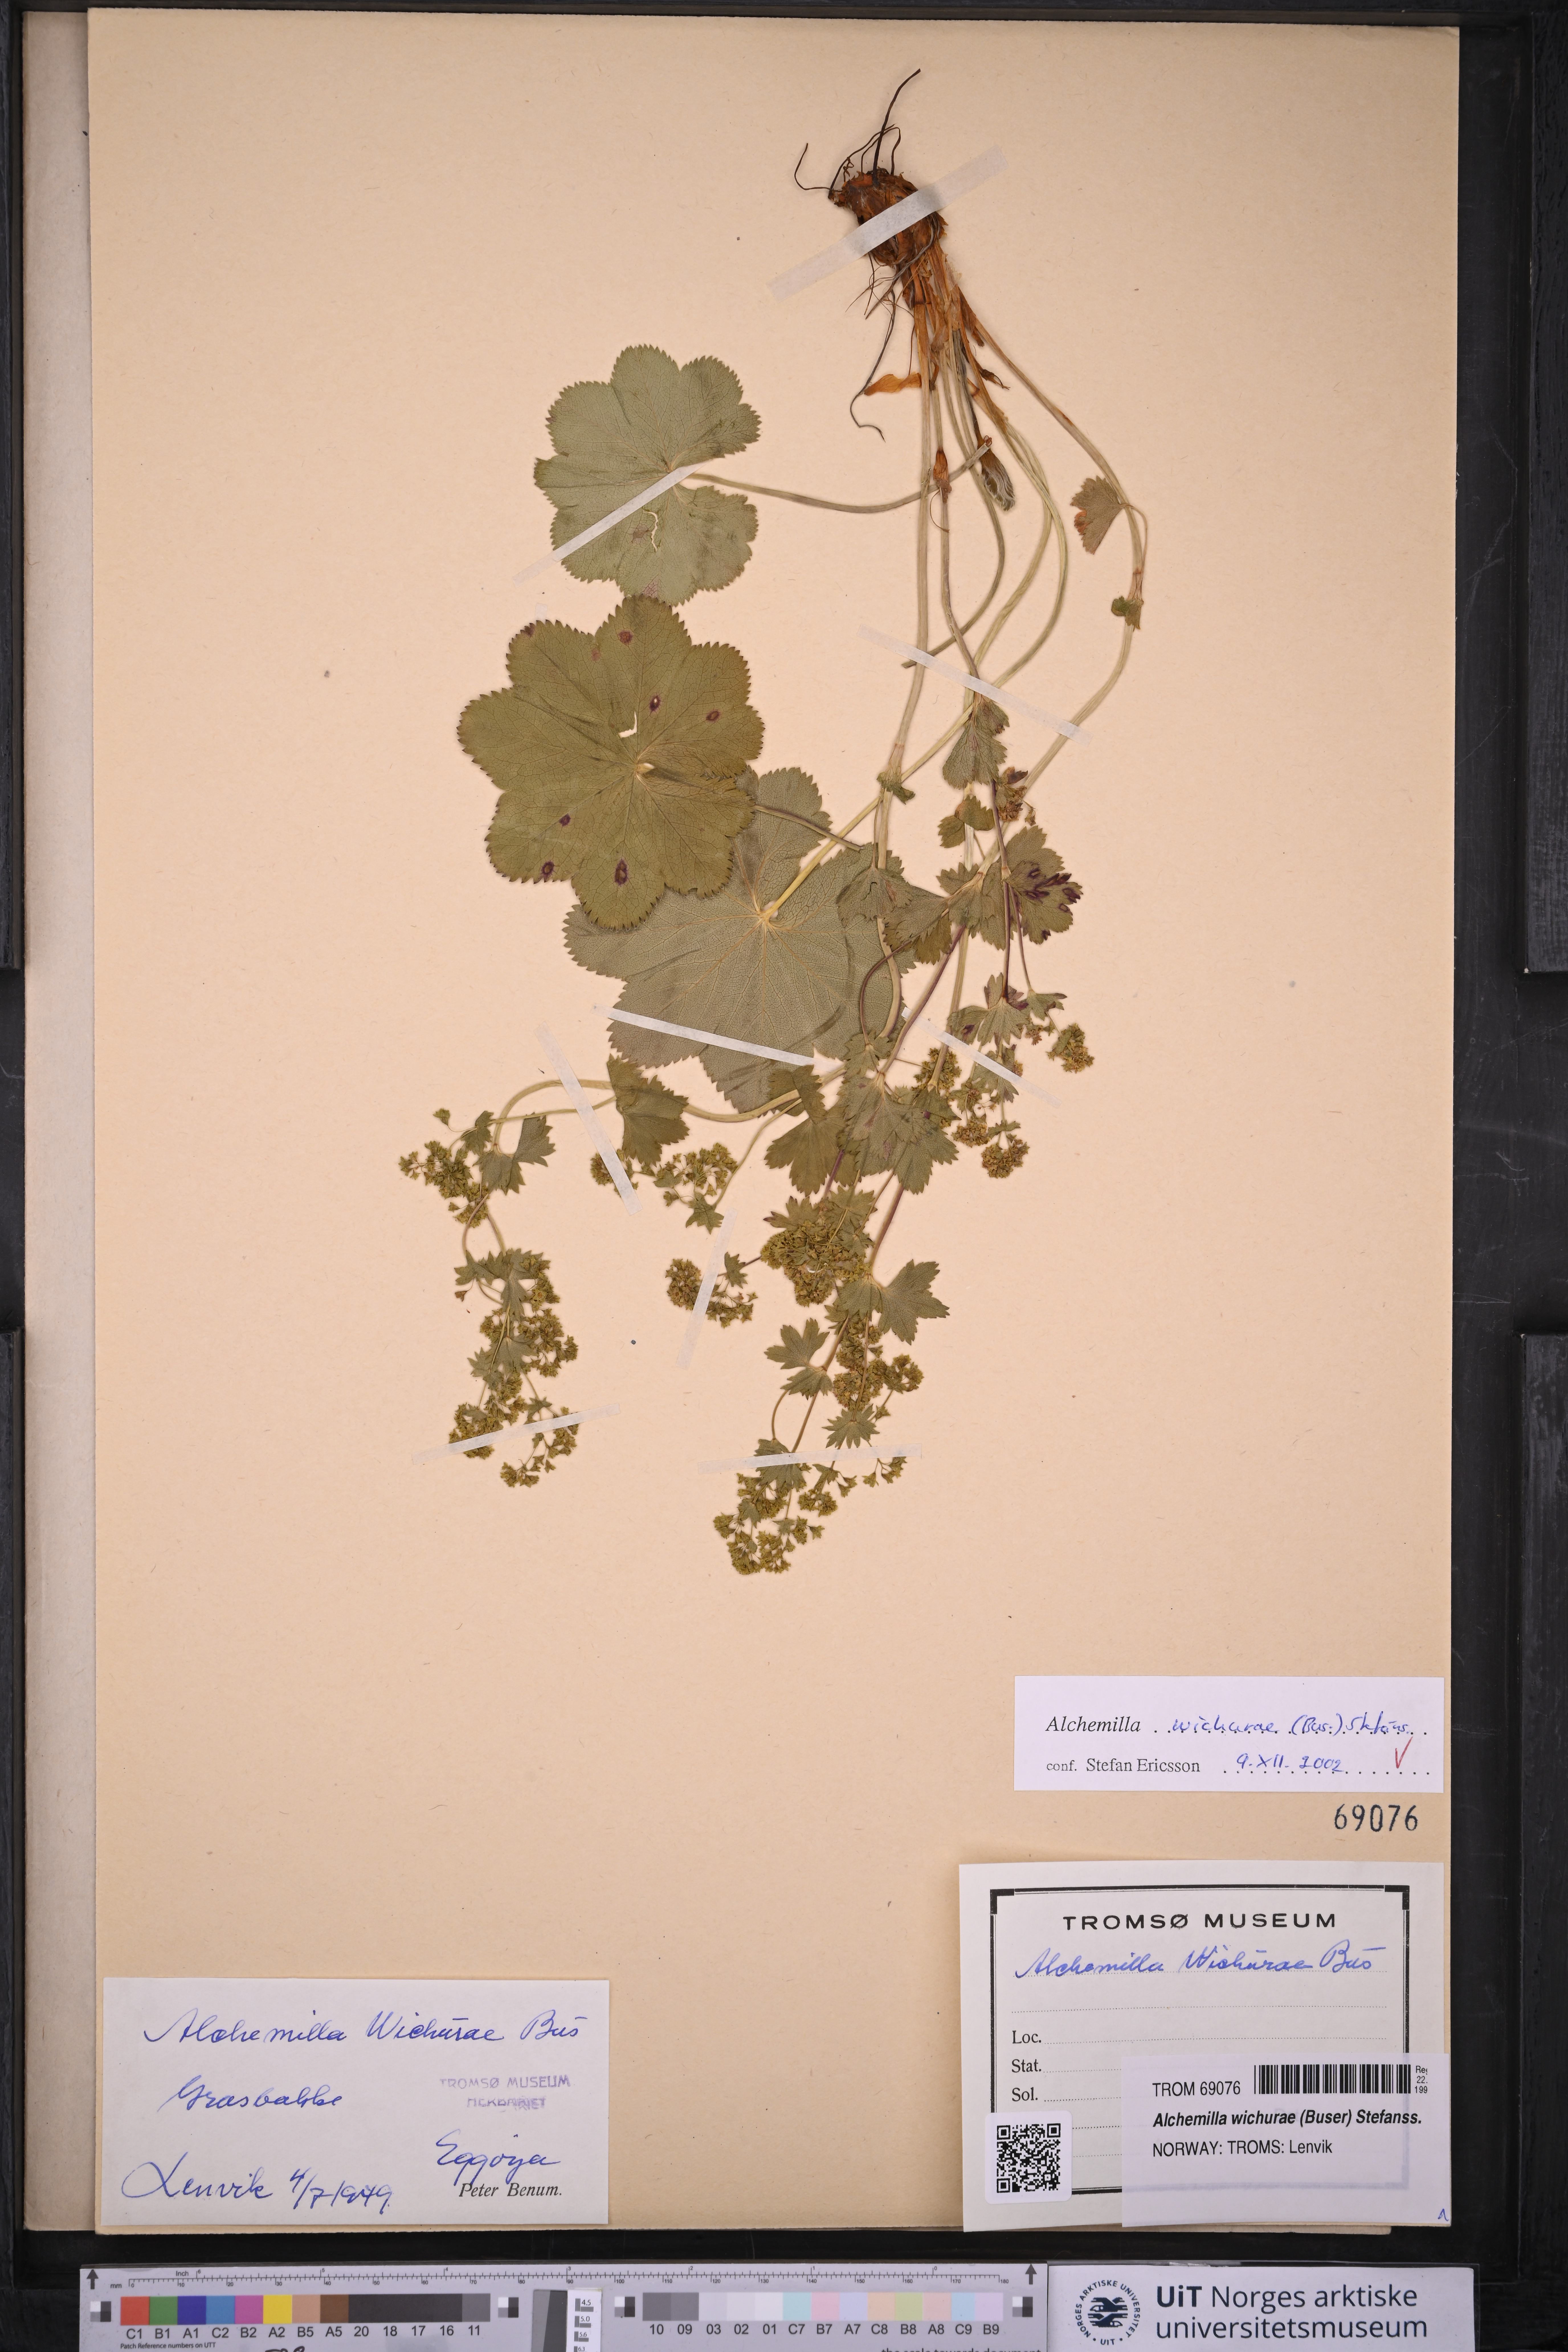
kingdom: Plantae
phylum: Tracheophyta
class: Magnoliopsida
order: Rosales
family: Rosaceae
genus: Alchemilla
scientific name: Alchemilla wichurae
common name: Rock lady's mantle
